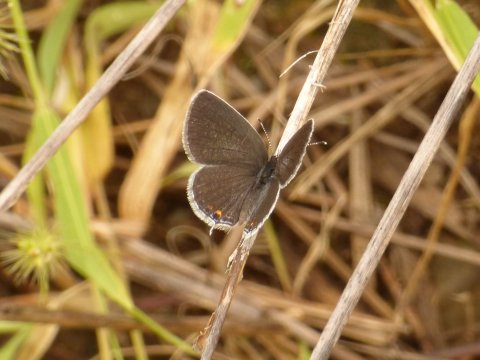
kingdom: Animalia
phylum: Arthropoda
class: Insecta
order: Lepidoptera
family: Lycaenidae
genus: Elkalyce
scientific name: Elkalyce comyntas
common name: Eastern Tailed-Blue
